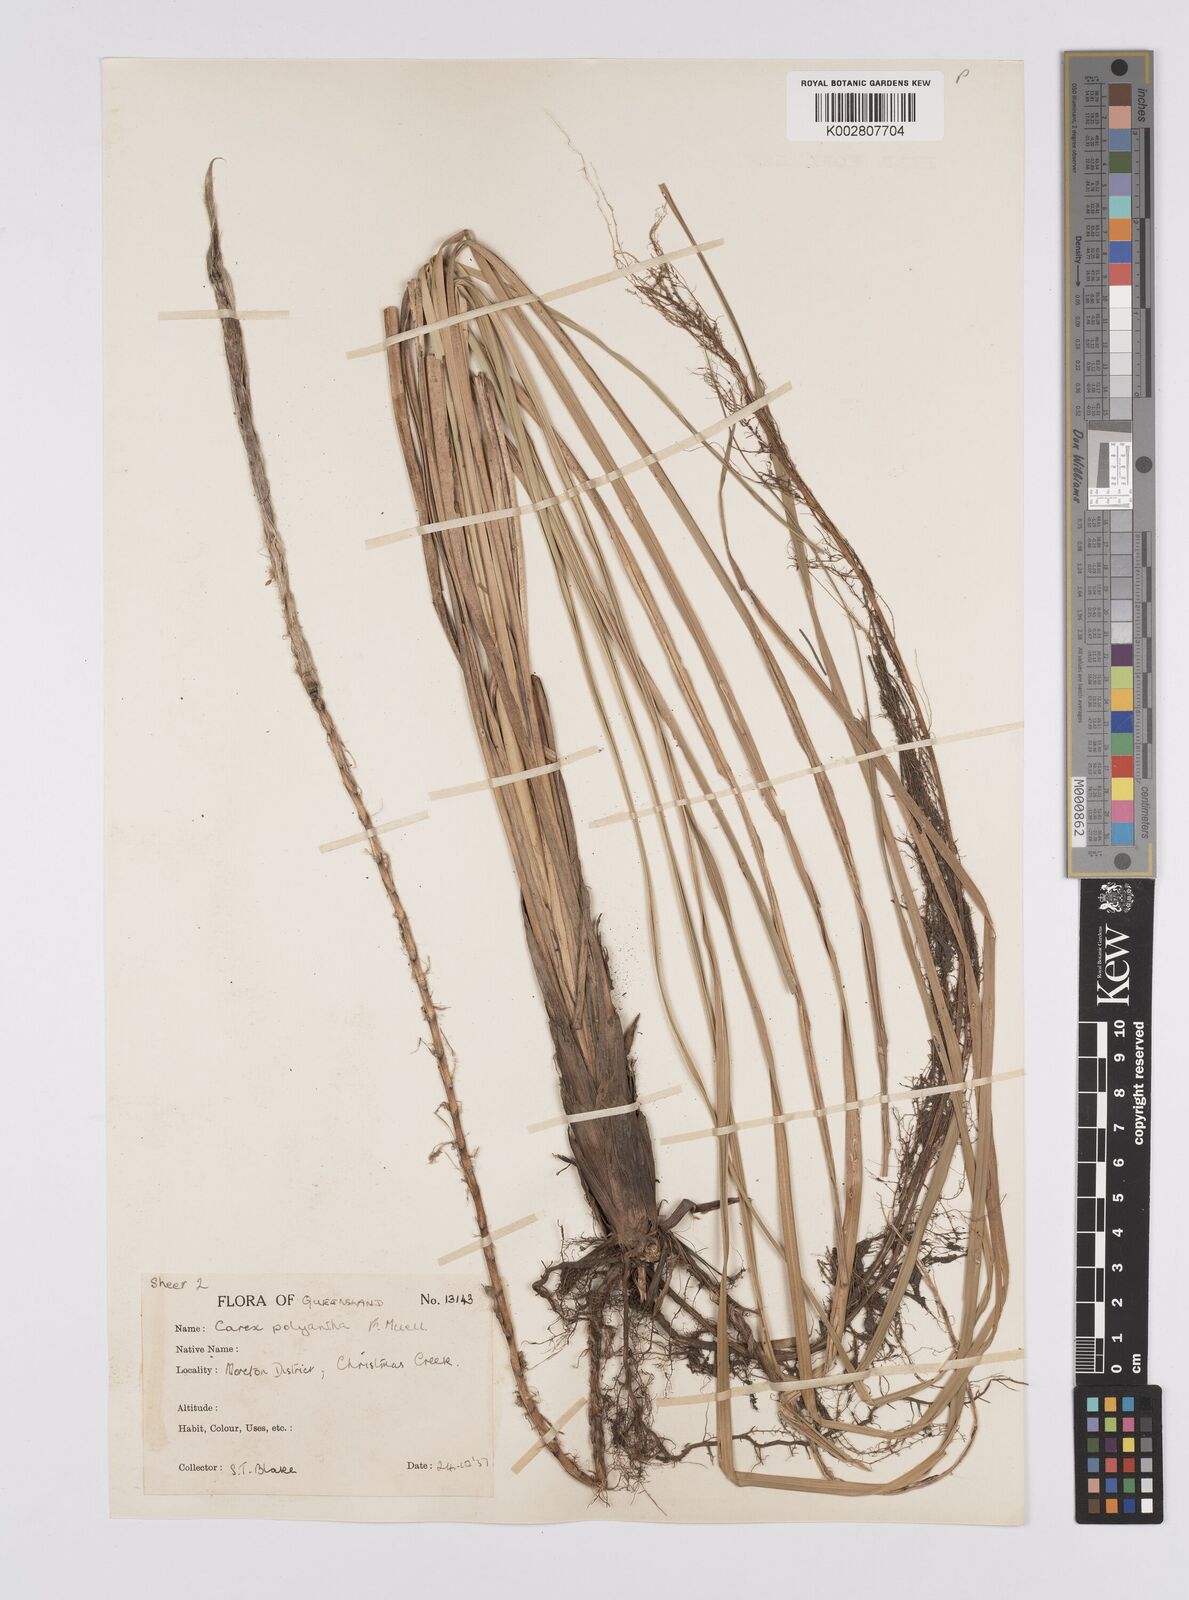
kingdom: Plantae
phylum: Tracheophyta
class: Liliopsida
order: Poales
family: Cyperaceae
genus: Carex
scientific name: Carex polyantha
